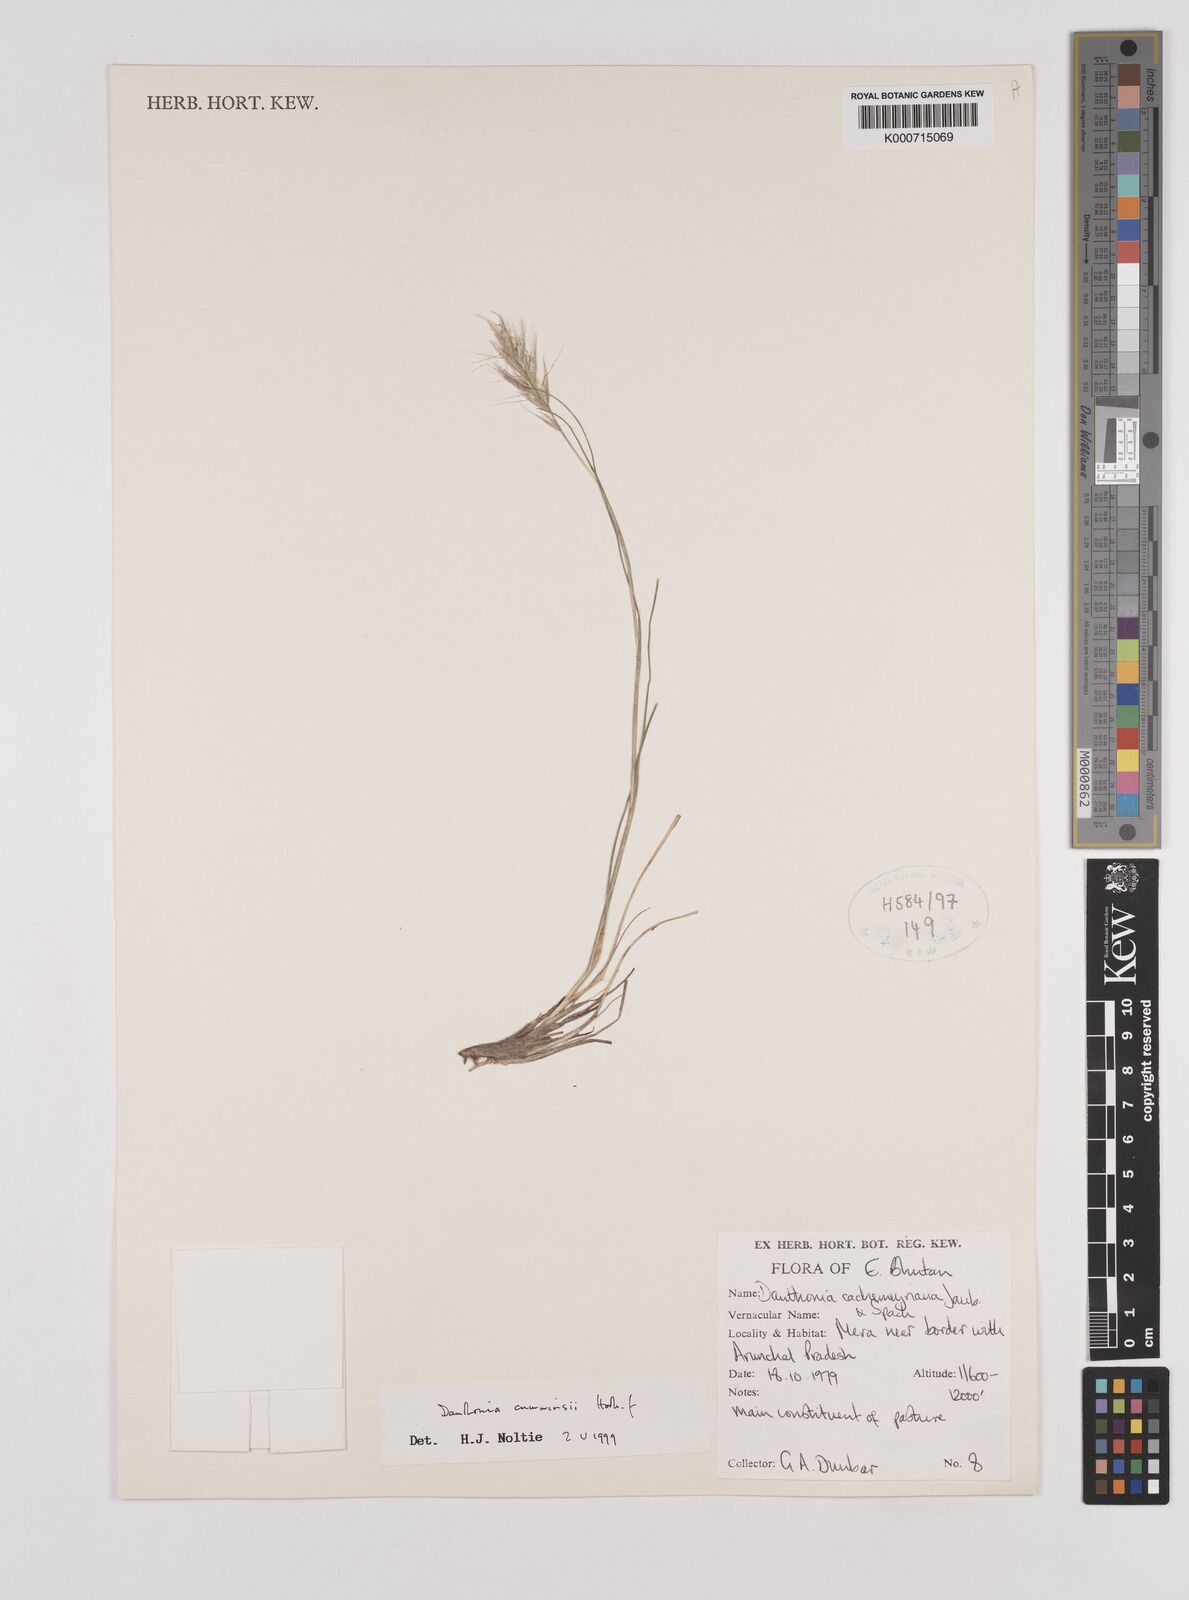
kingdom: Plantae
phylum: Tracheophyta
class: Liliopsida
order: Poales
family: Poaceae
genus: Rytidosperma
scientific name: Rytidosperma
